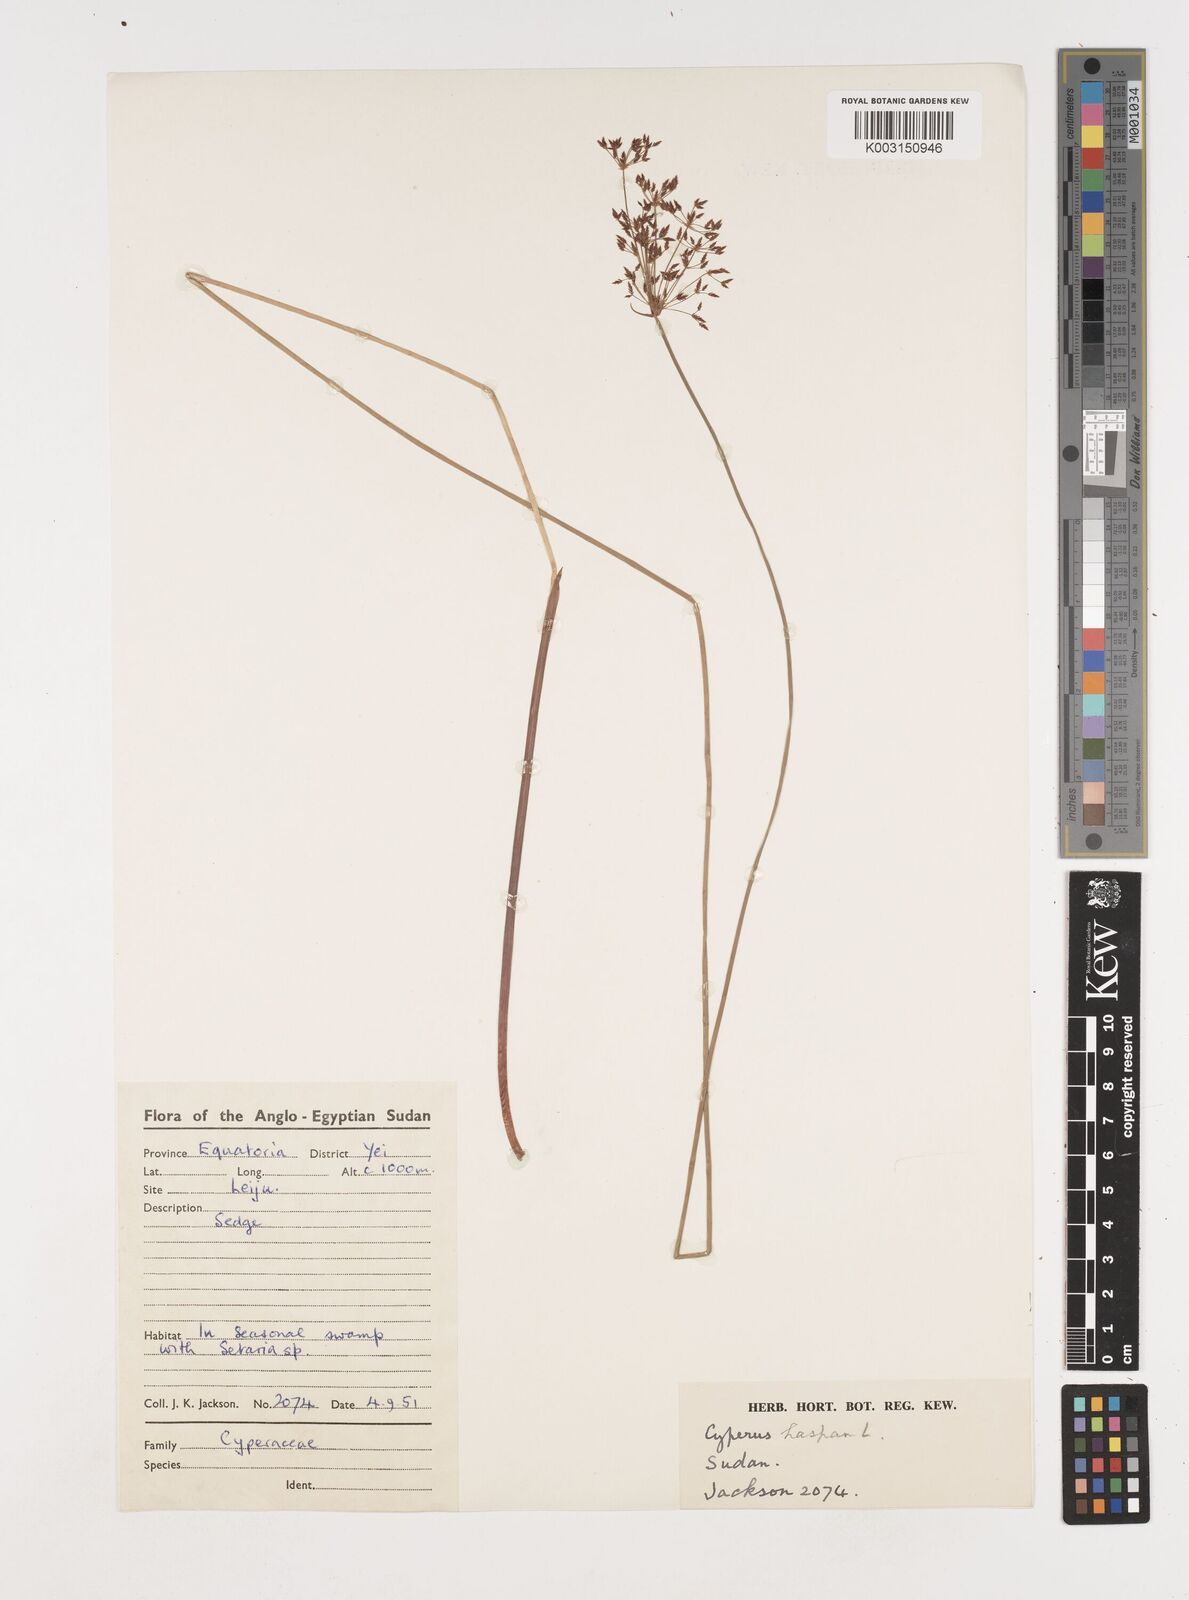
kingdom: Plantae
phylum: Tracheophyta
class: Liliopsida
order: Poales
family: Cyperaceae
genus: Cyperus
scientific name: Cyperus haspan
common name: Haspan flatsedge
